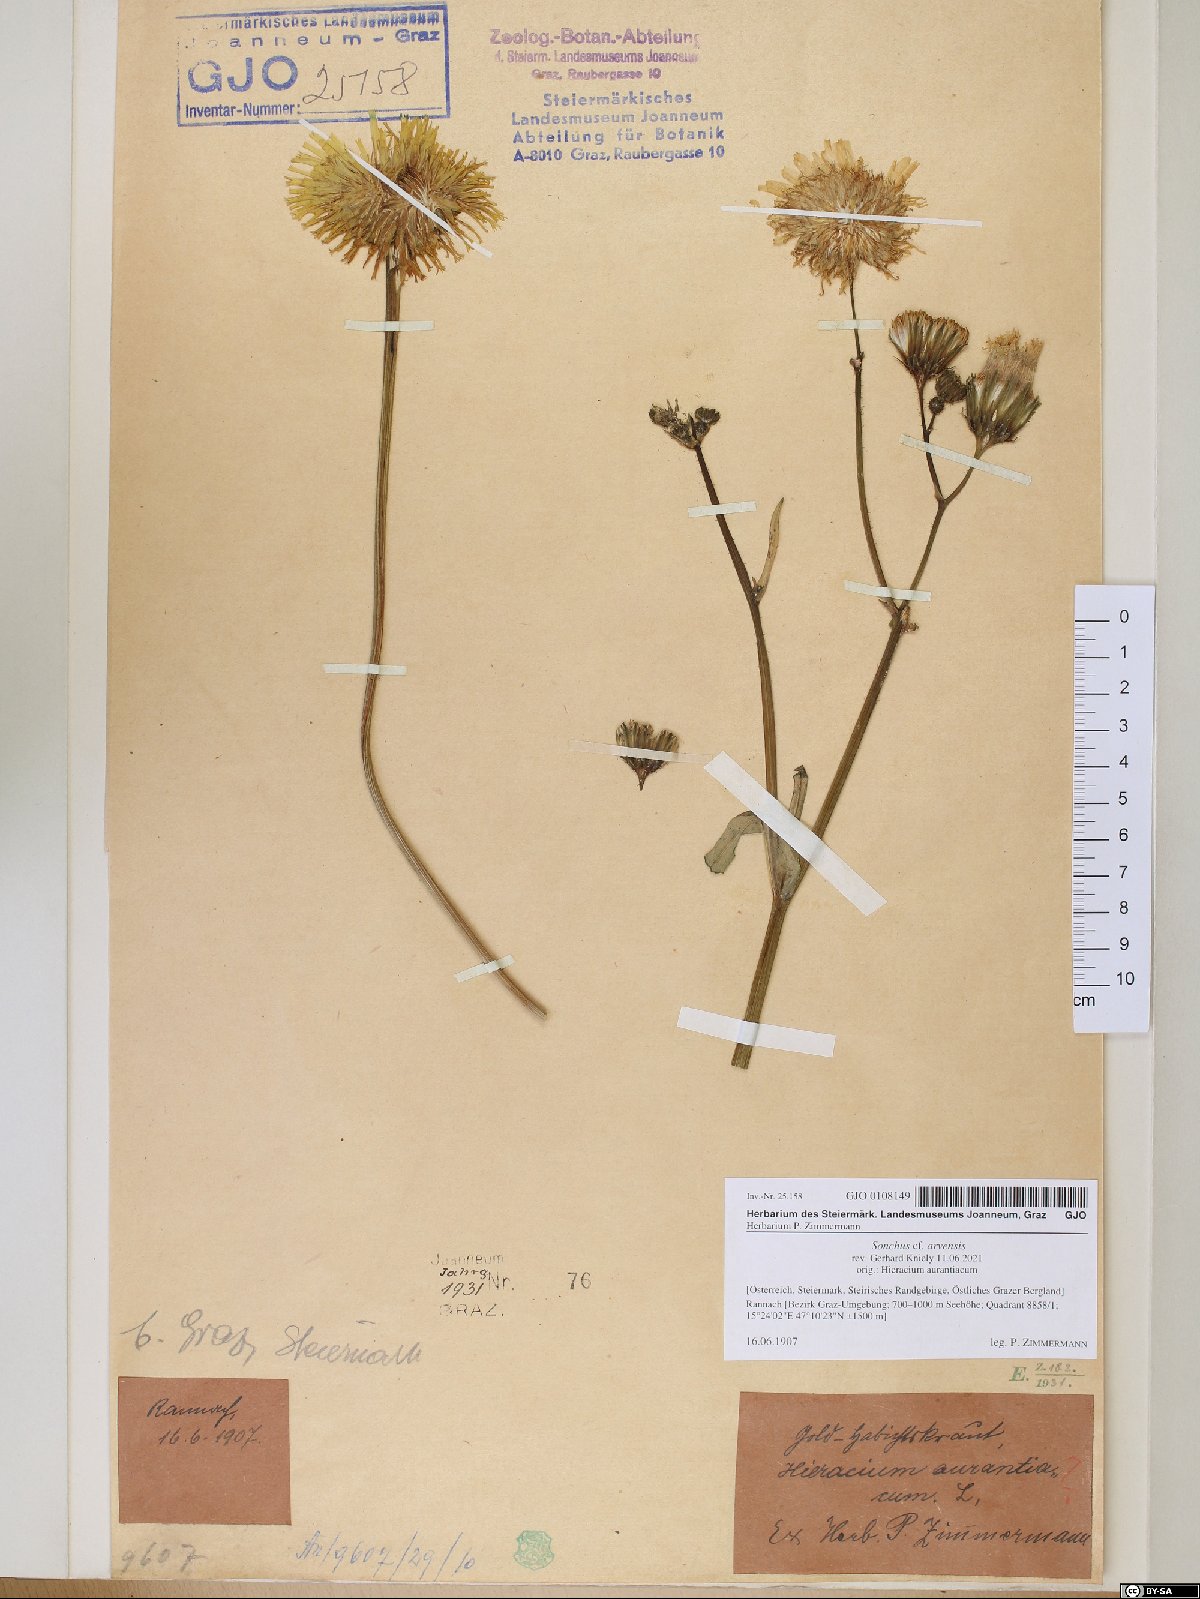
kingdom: Plantae
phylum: Tracheophyta
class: Magnoliopsida
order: Asterales
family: Asteraceae
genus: Sonchus
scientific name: Sonchus arvensis
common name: Perennial sow-thistle
